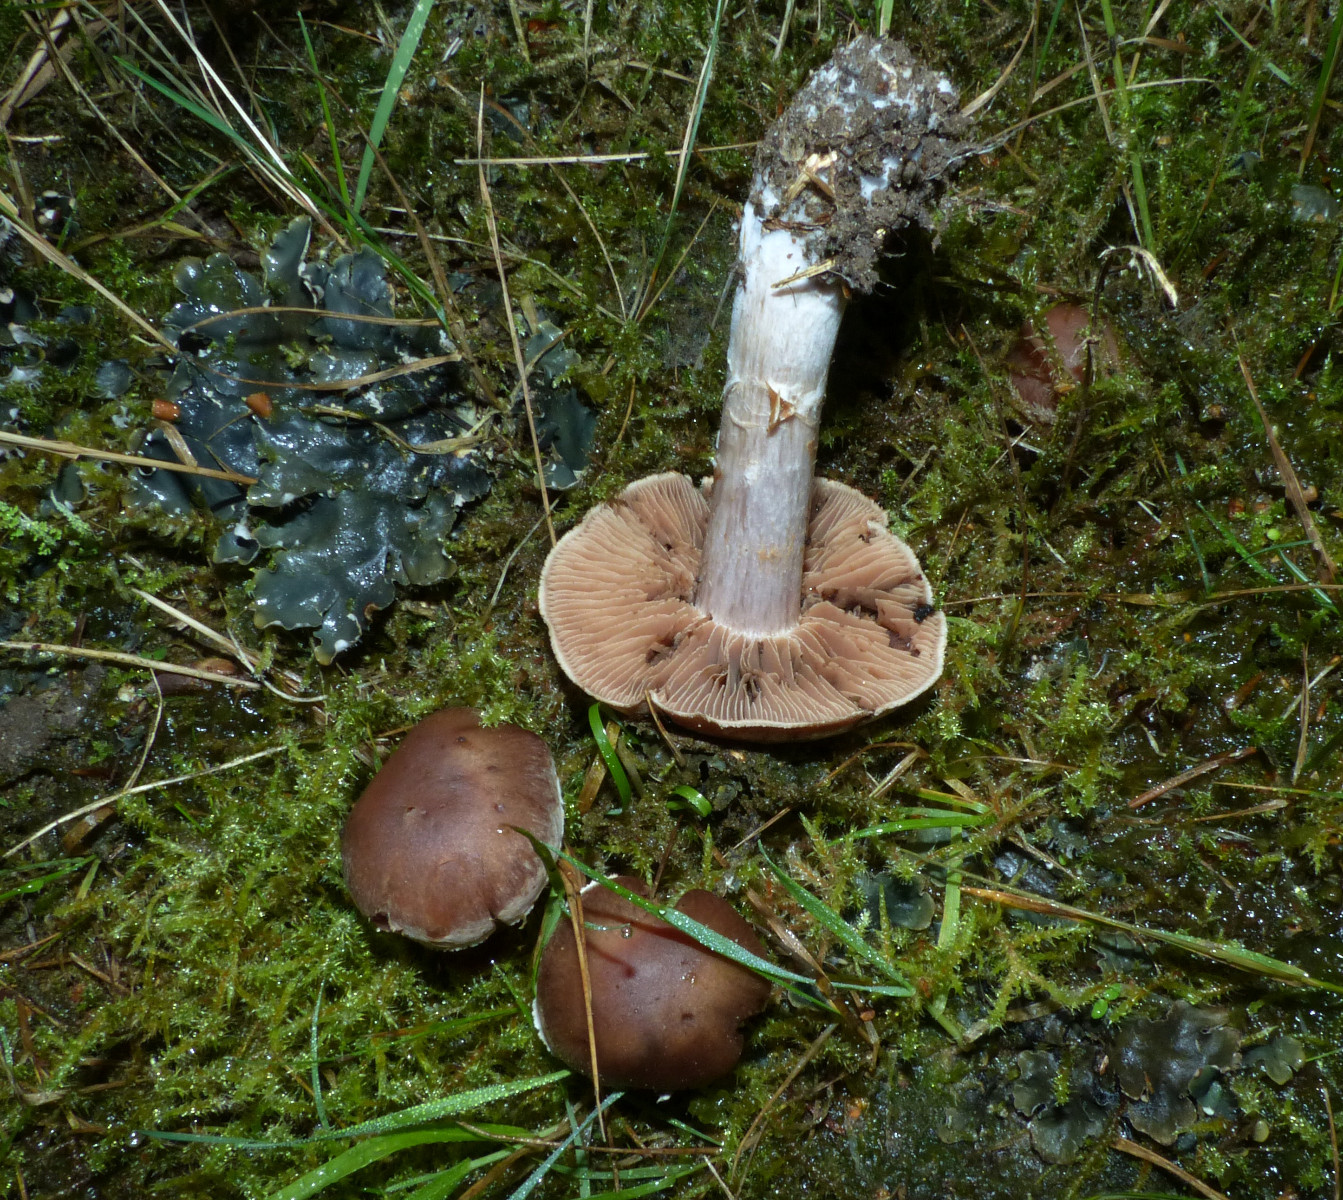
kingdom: Fungi
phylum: Basidiomycota
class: Agaricomycetes
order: Agaricales
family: Cortinariaceae
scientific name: Cortinariaceae
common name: slørhatfamilien
